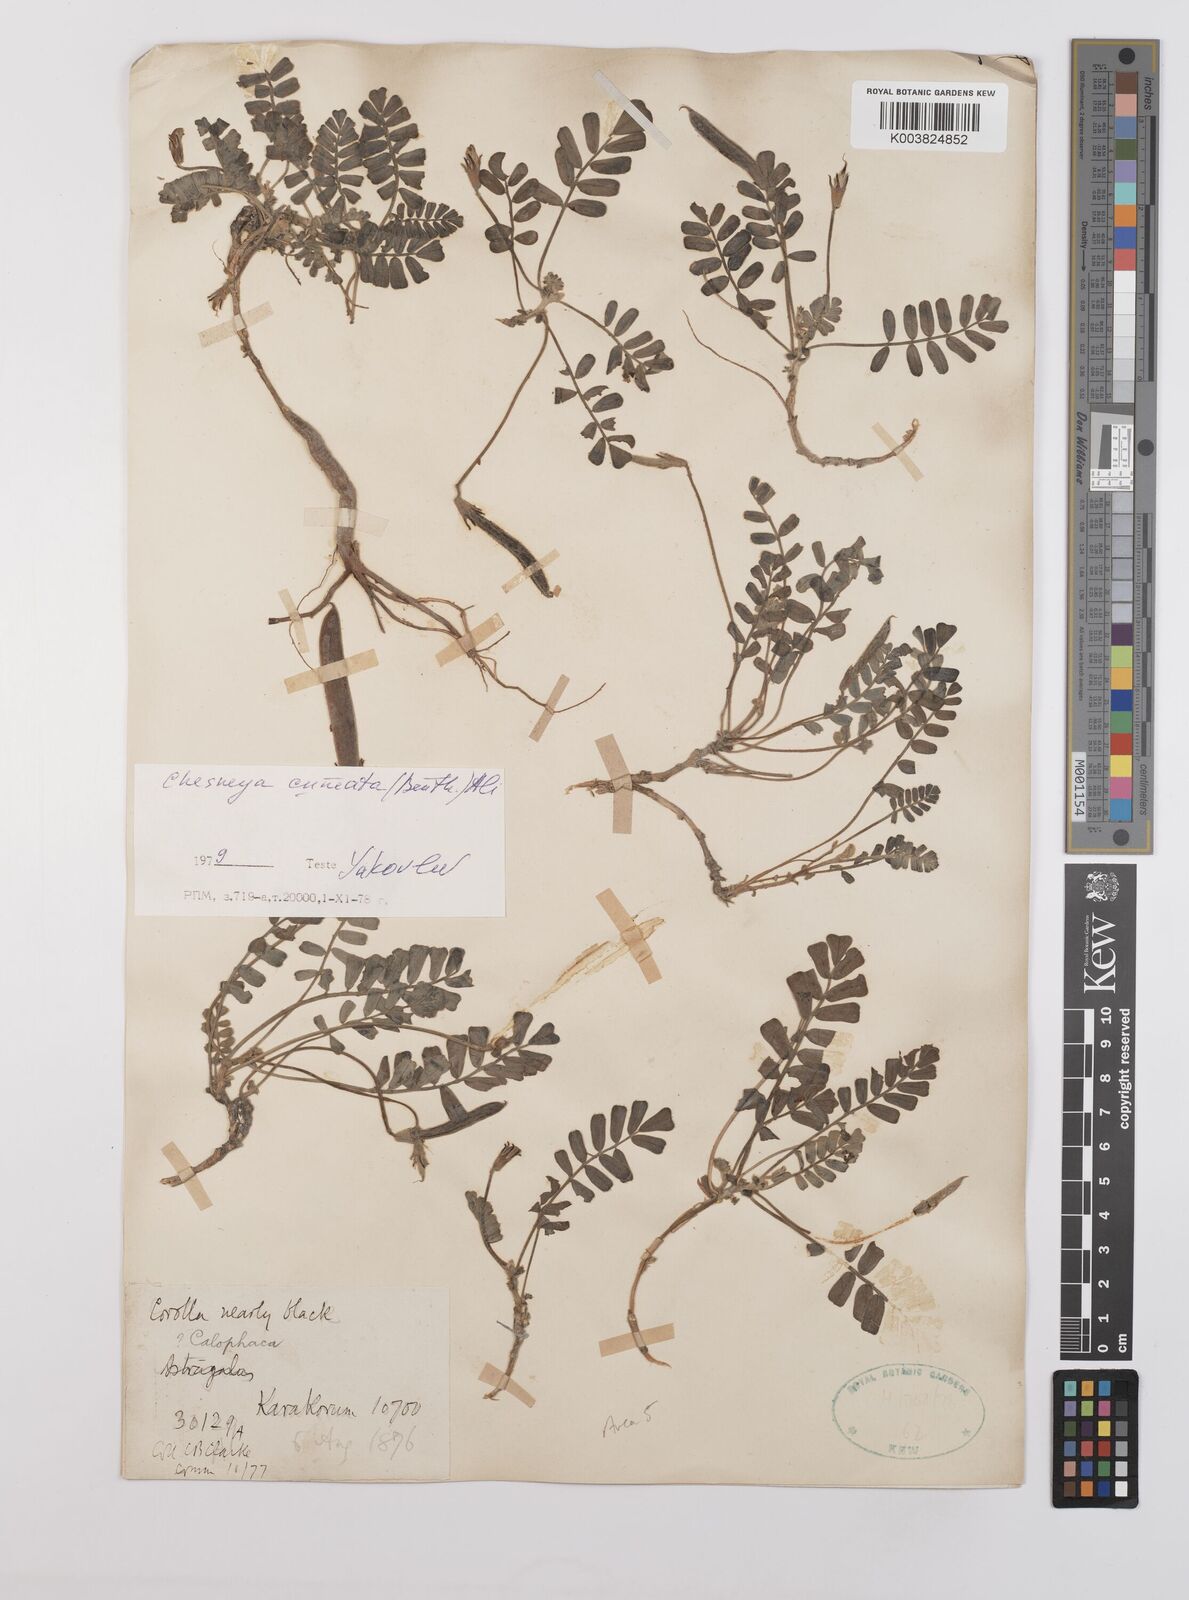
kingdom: Plantae
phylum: Tracheophyta
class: Magnoliopsida
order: Fabales
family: Fabaceae
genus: Chesneya
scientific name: Chesneya cuneata
